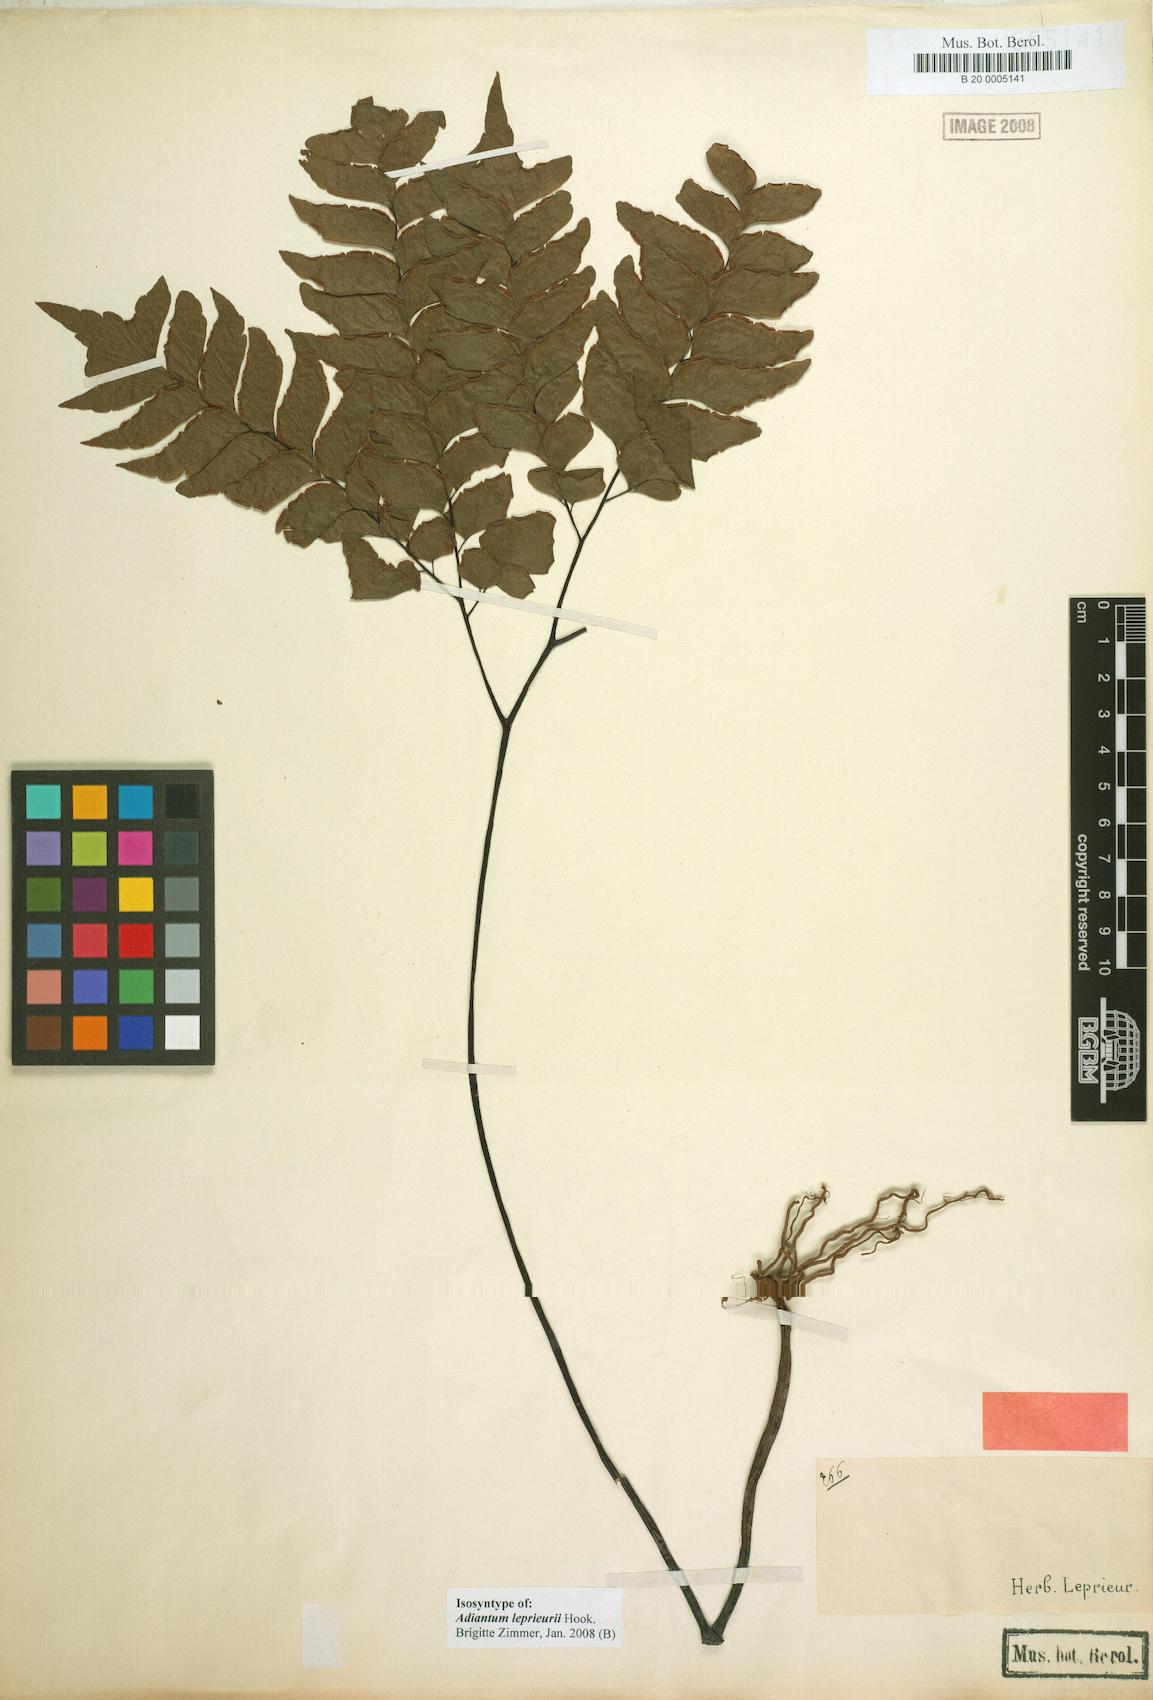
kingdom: Plantae
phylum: Tracheophyta
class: Polypodiopsida
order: Polypodiales
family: Pteridaceae
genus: Adiantum
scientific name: Adiantum leprieurii
